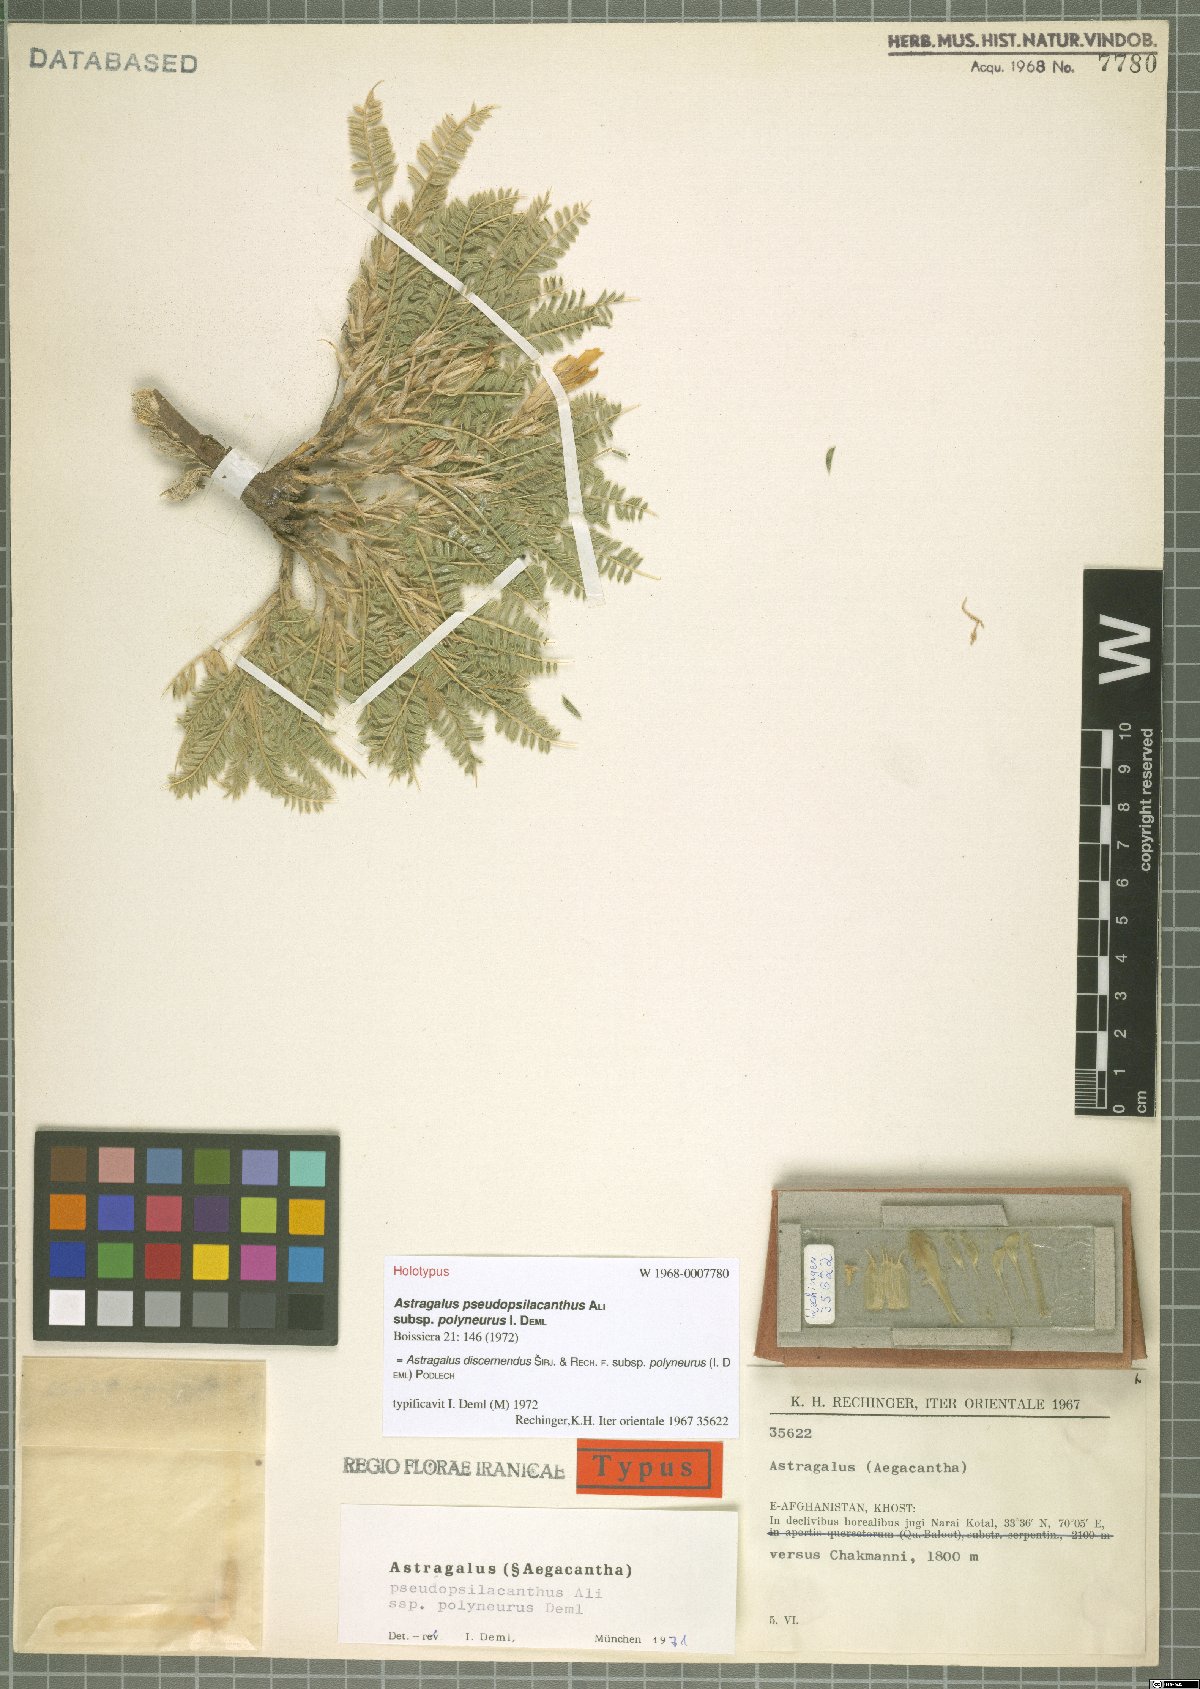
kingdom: Plantae
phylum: Tracheophyta
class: Magnoliopsida
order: Fabales
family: Fabaceae
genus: Astragalus
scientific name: Astragalus discernendus
